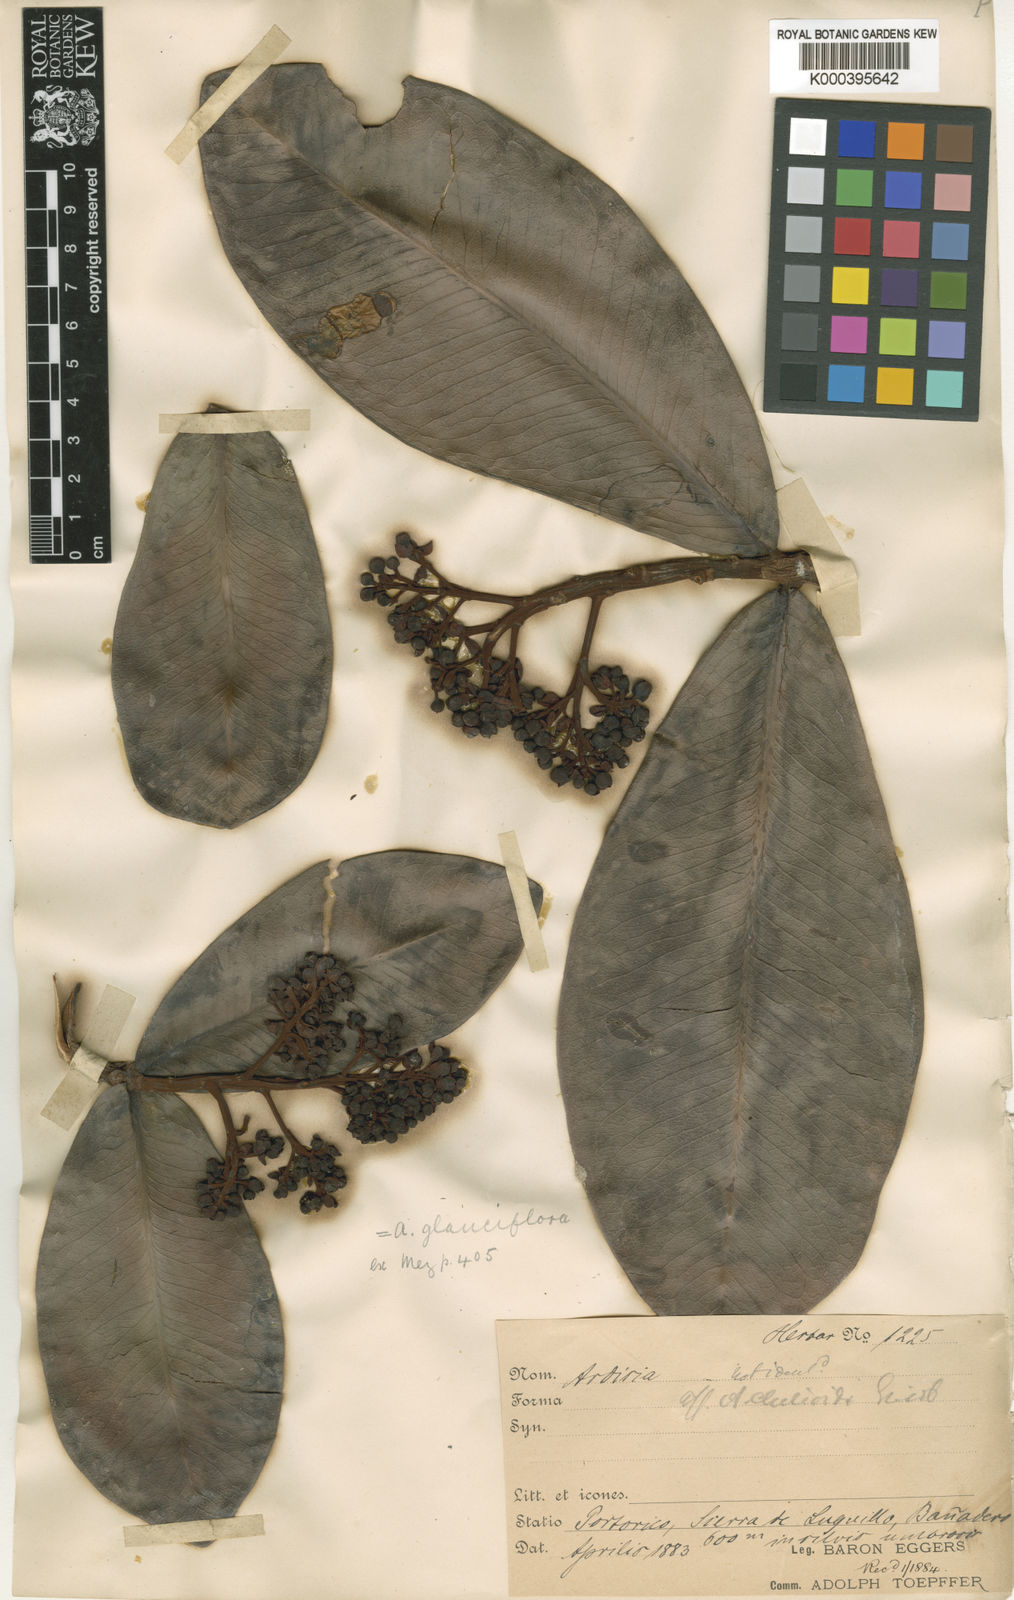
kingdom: Plantae
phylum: Tracheophyta
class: Magnoliopsida
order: Ericales
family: Primulaceae
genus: Ardisia
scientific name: Ardisia glauciflora
